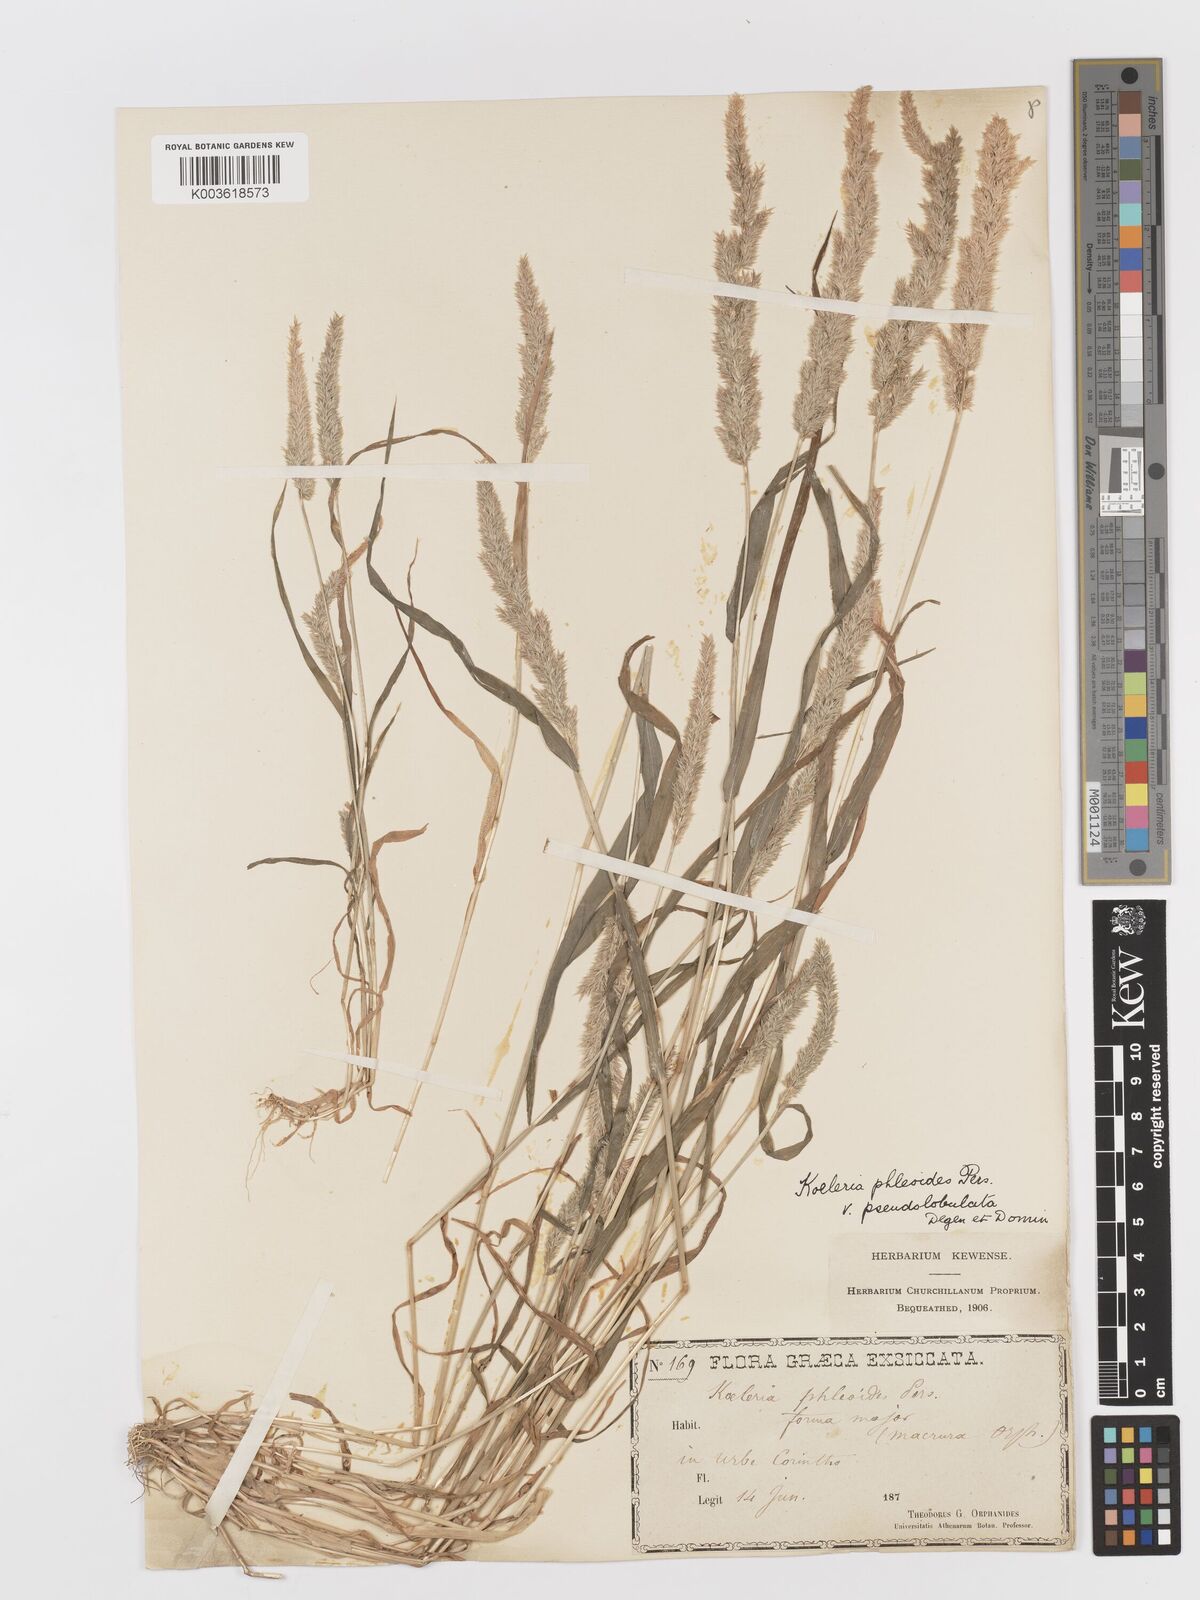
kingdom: Plantae
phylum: Tracheophyta
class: Liliopsida
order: Poales
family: Poaceae
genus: Rostraria
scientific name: Rostraria cristata
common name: Mediterranean hair-grass
